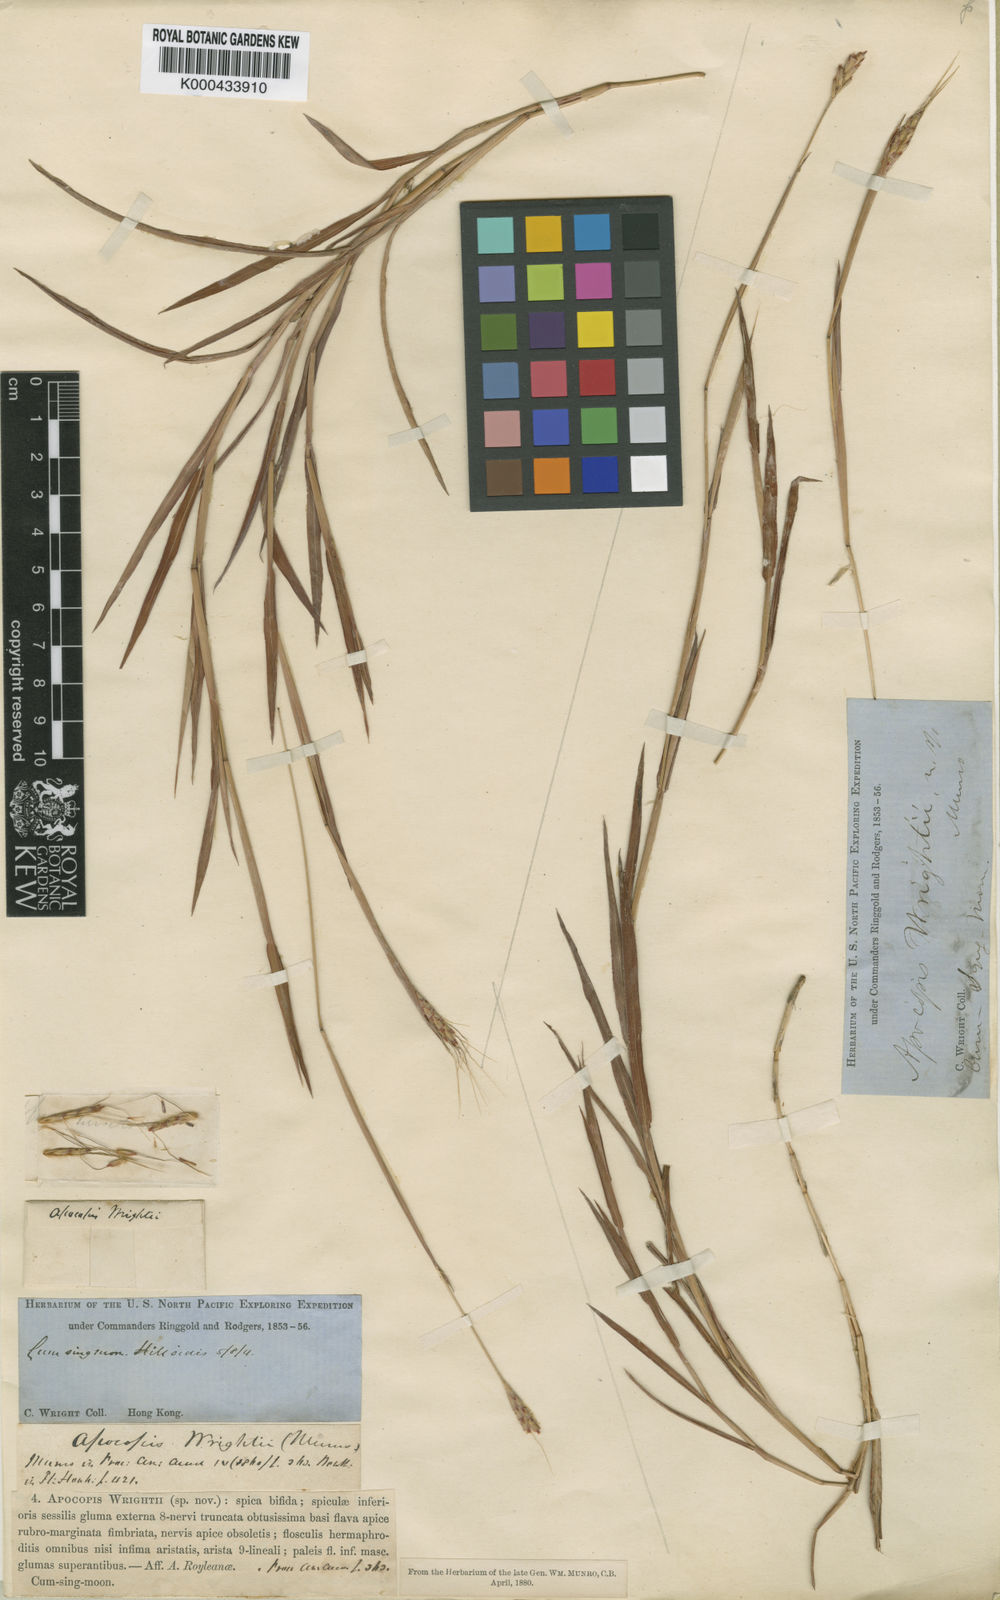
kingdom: Plantae
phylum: Tracheophyta
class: Liliopsida
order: Poales
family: Poaceae
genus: Apocopis
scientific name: Apocopis wrightii
